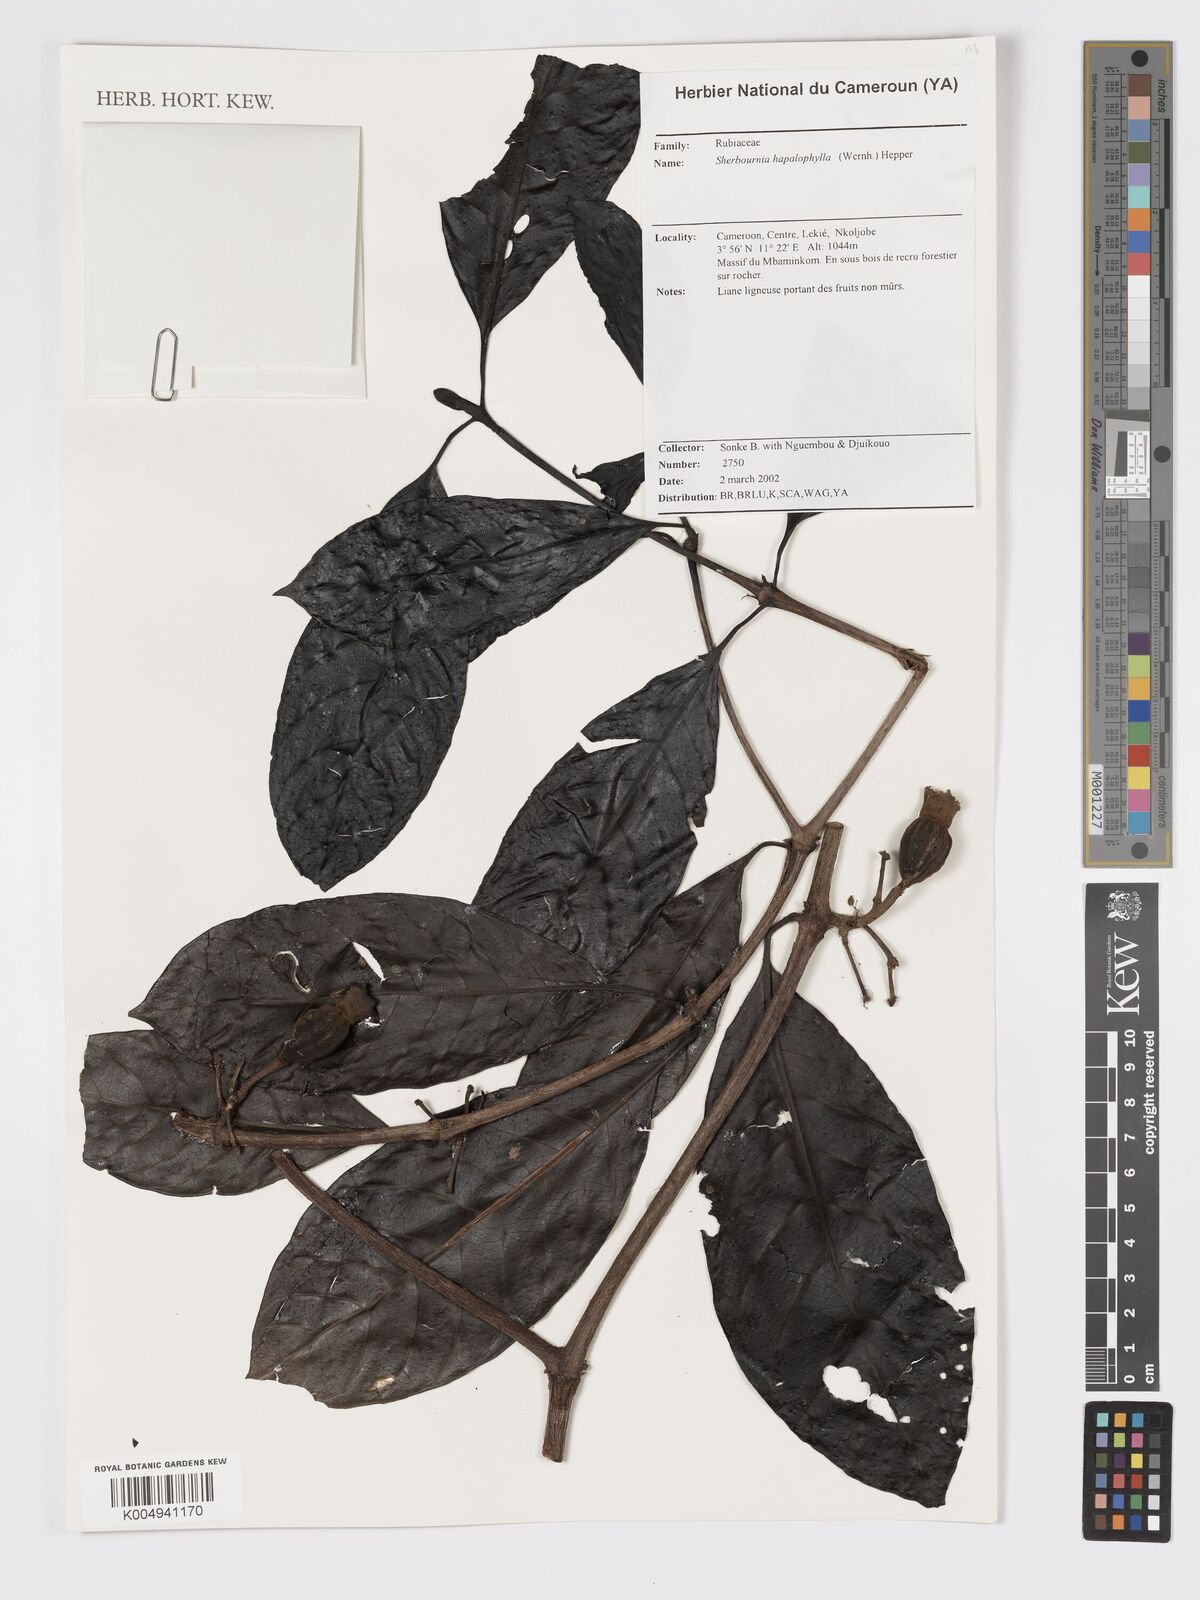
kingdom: Plantae
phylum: Tracheophyta
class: Magnoliopsida
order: Gentianales
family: Rubiaceae
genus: Sherbournia
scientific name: Sherbournia hapalophylla
